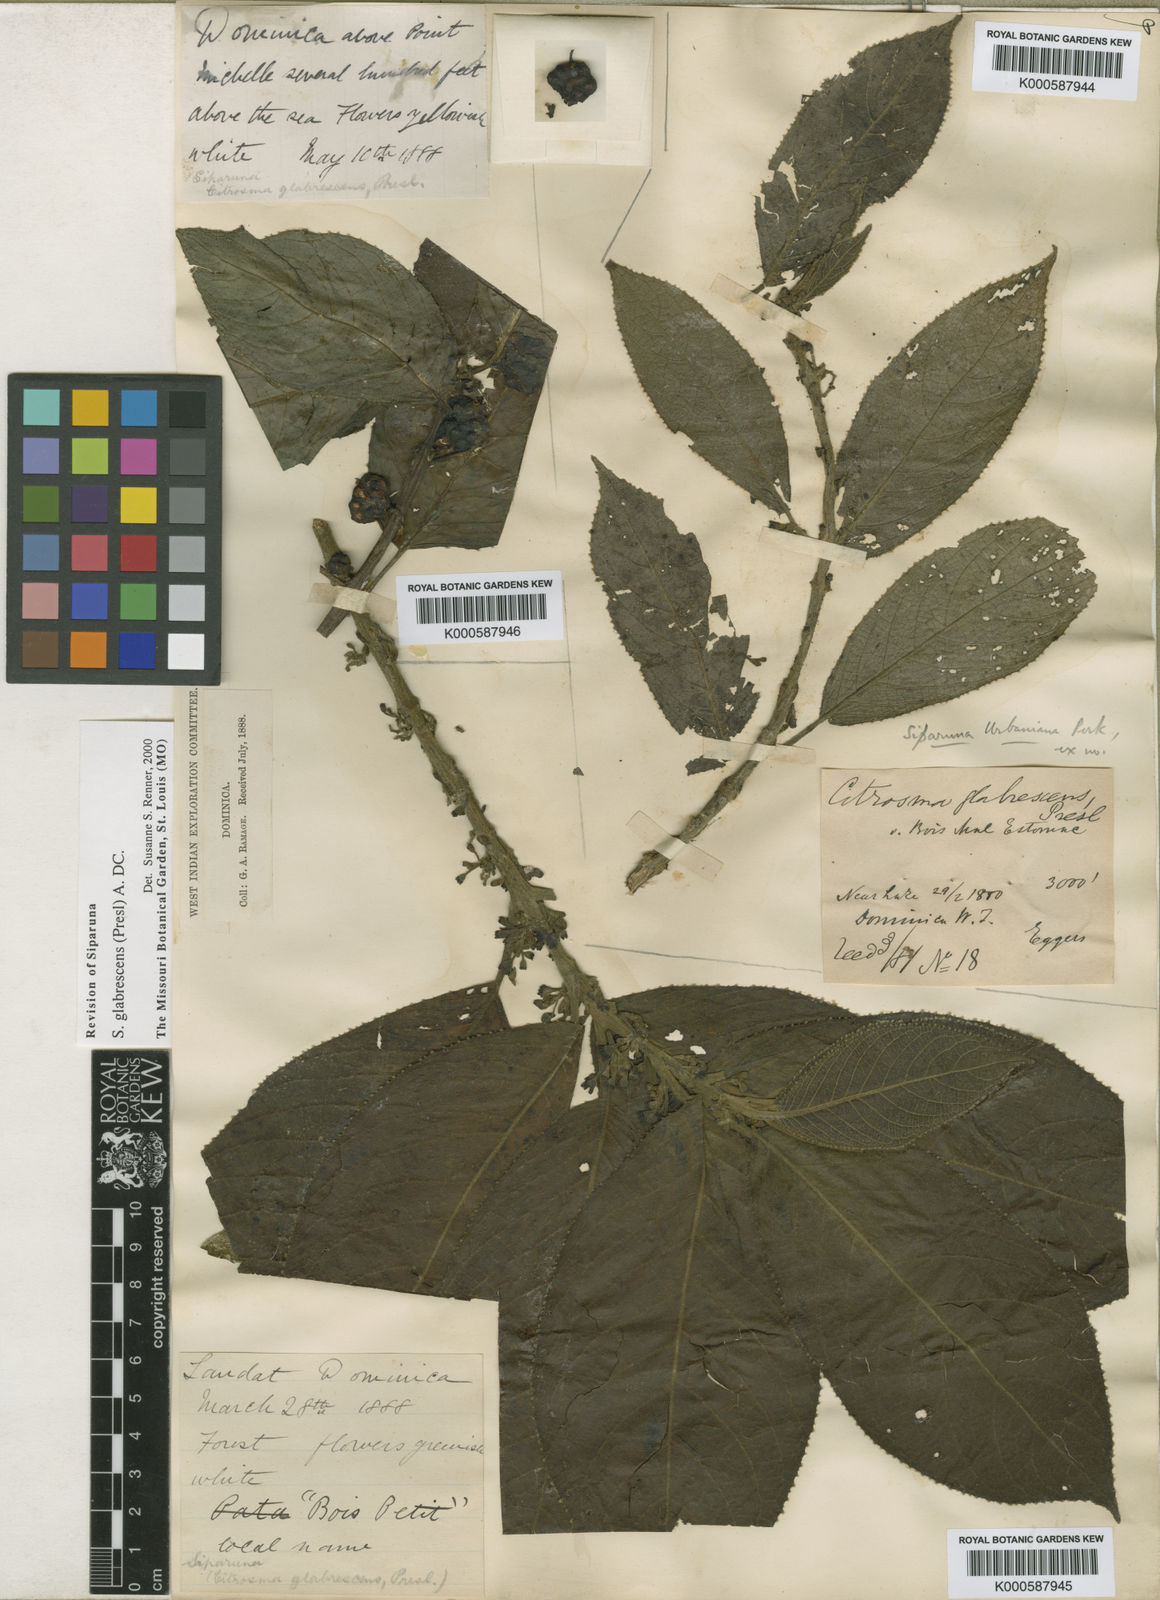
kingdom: Plantae
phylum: Tracheophyta
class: Magnoliopsida
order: Laurales
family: Siparunaceae
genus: Siparuna
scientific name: Siparuna glabrescens
